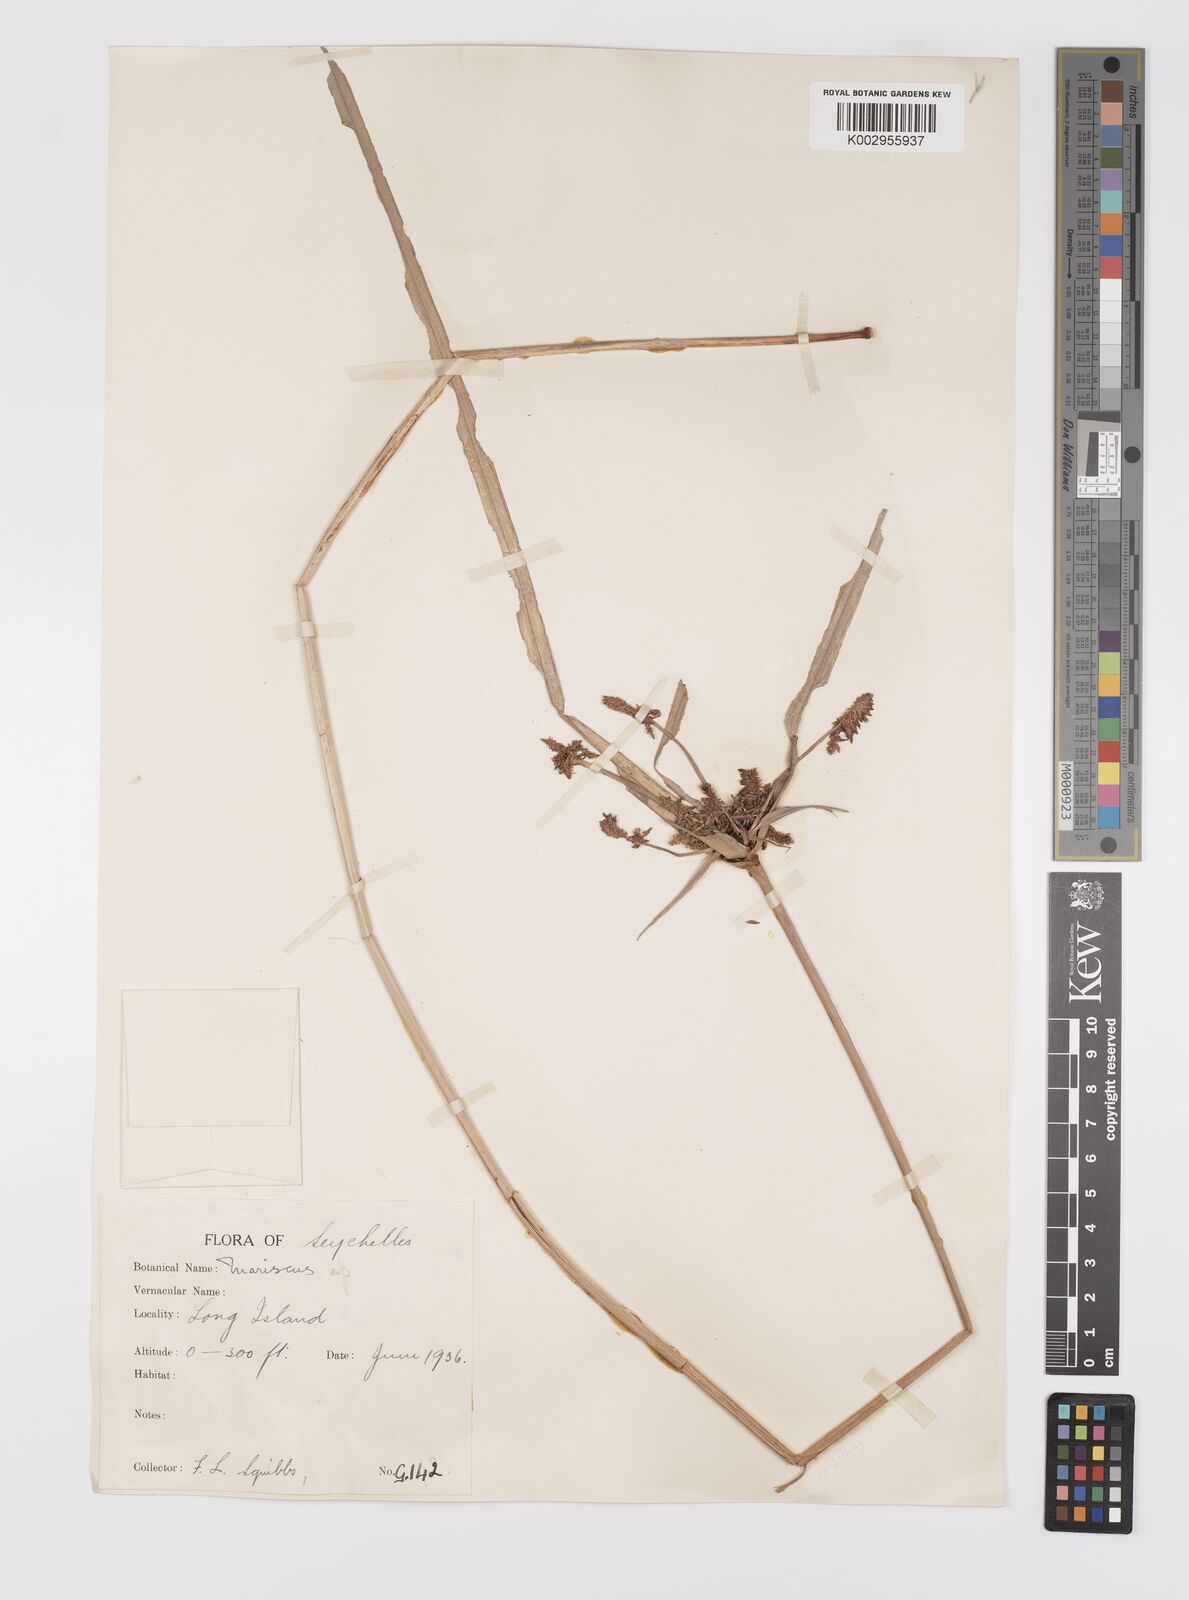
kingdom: Plantae
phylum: Tracheophyta
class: Liliopsida
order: Poales
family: Cyperaceae
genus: Cyperus
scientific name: Cyperus ligularis
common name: Swamp flat sedge
